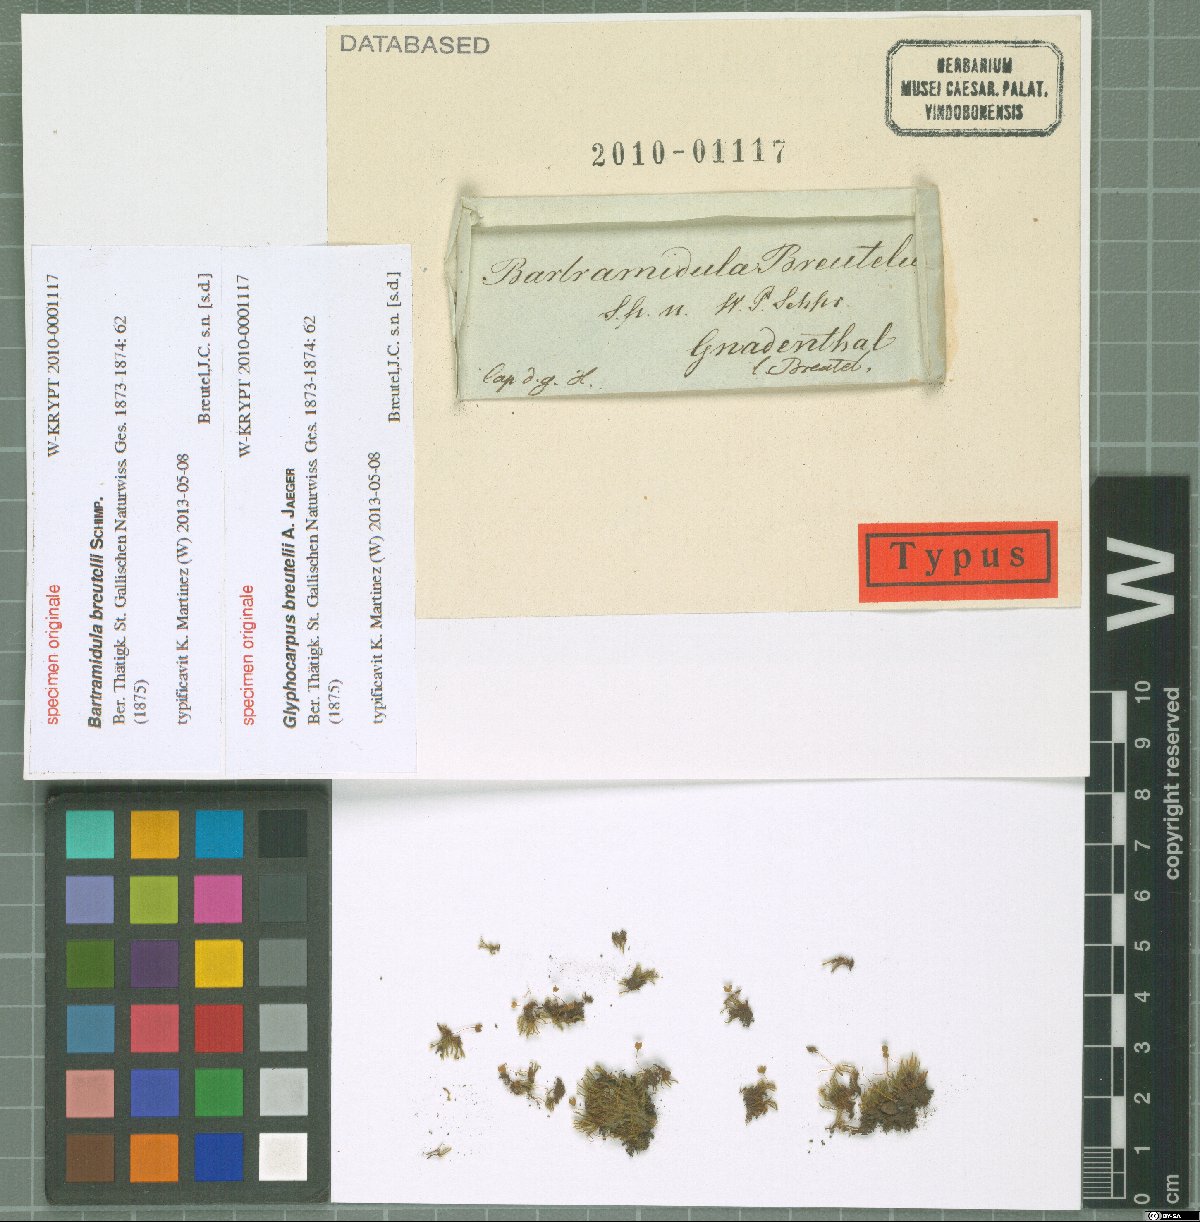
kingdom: Plantae
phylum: Bryophyta
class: Bryopsida
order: Bartramiales
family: Bartramiaceae
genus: Bartramia
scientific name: Bartramia
